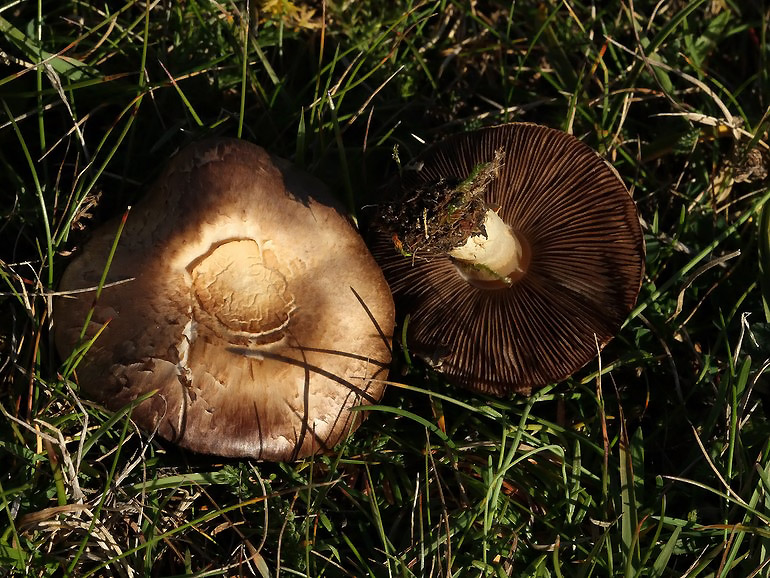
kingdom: Fungi
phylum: Basidiomycota
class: Agaricomycetes
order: Agaricales
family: Agaricaceae
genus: Agaricus
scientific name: Agaricus cupreobrunneus
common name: kobberbrun champignon
